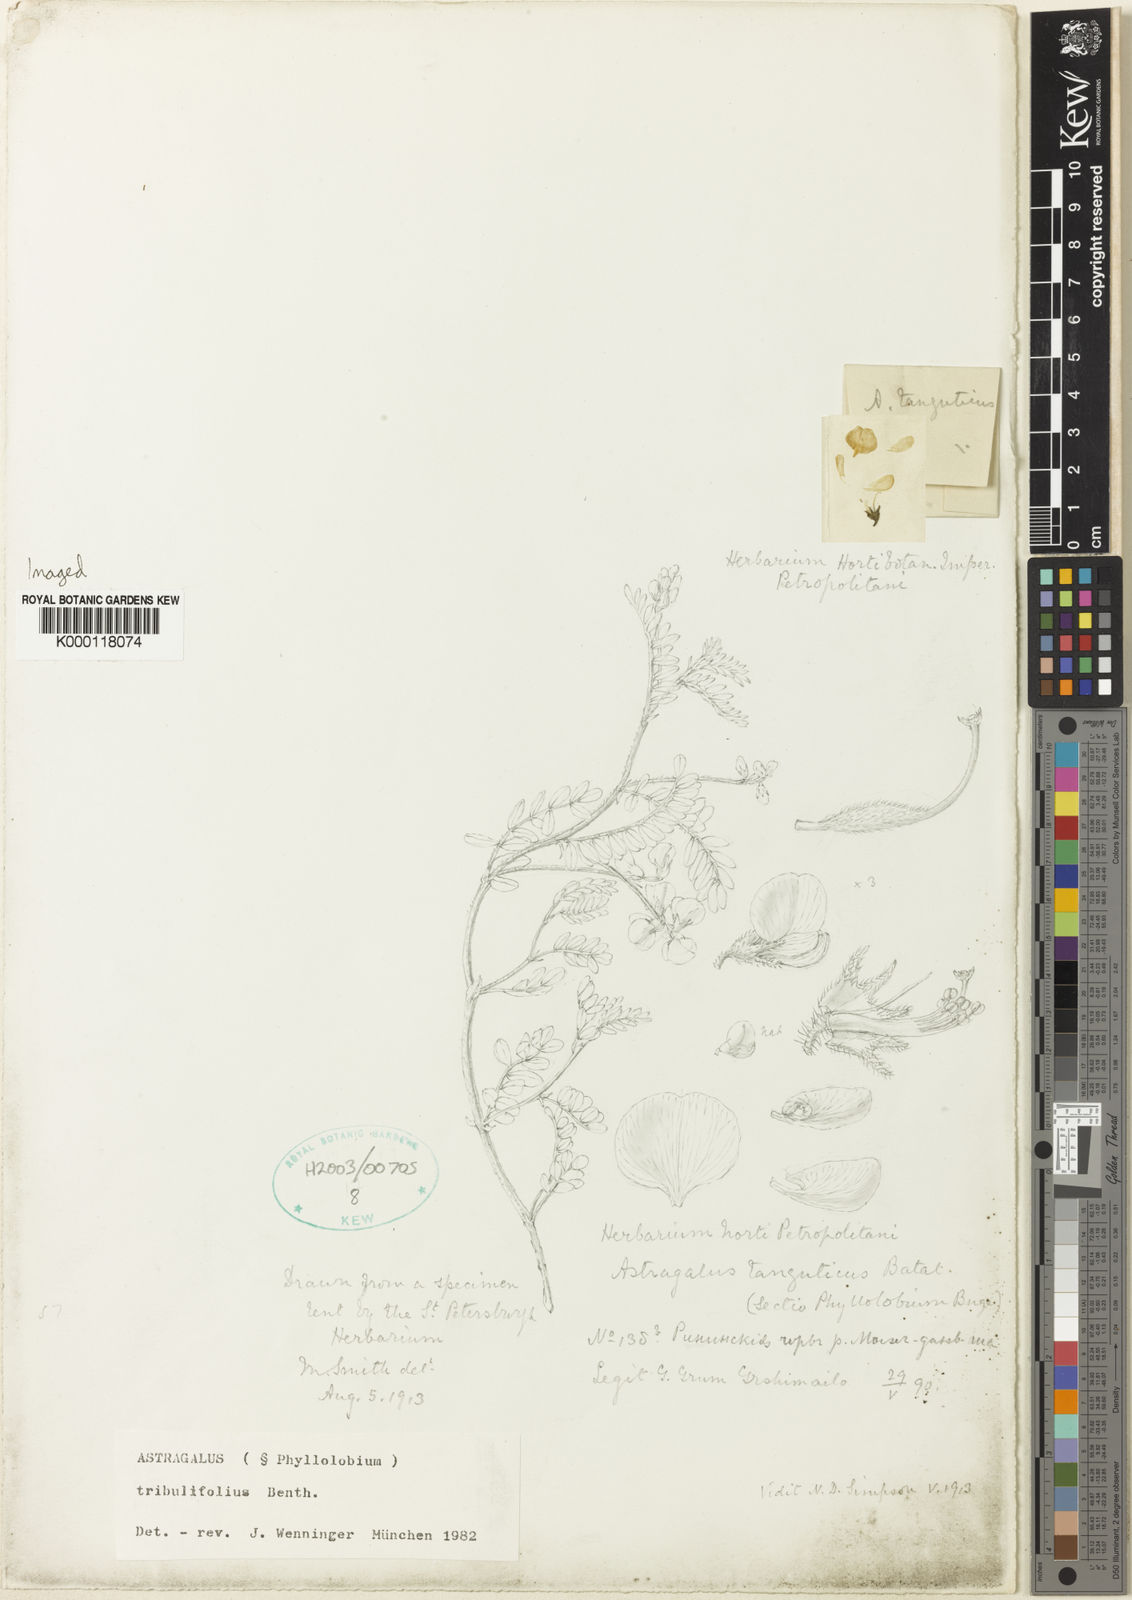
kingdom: Plantae
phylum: Tracheophyta
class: Magnoliopsida
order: Fabales
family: Fabaceae
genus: Astragalus
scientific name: Astragalus
